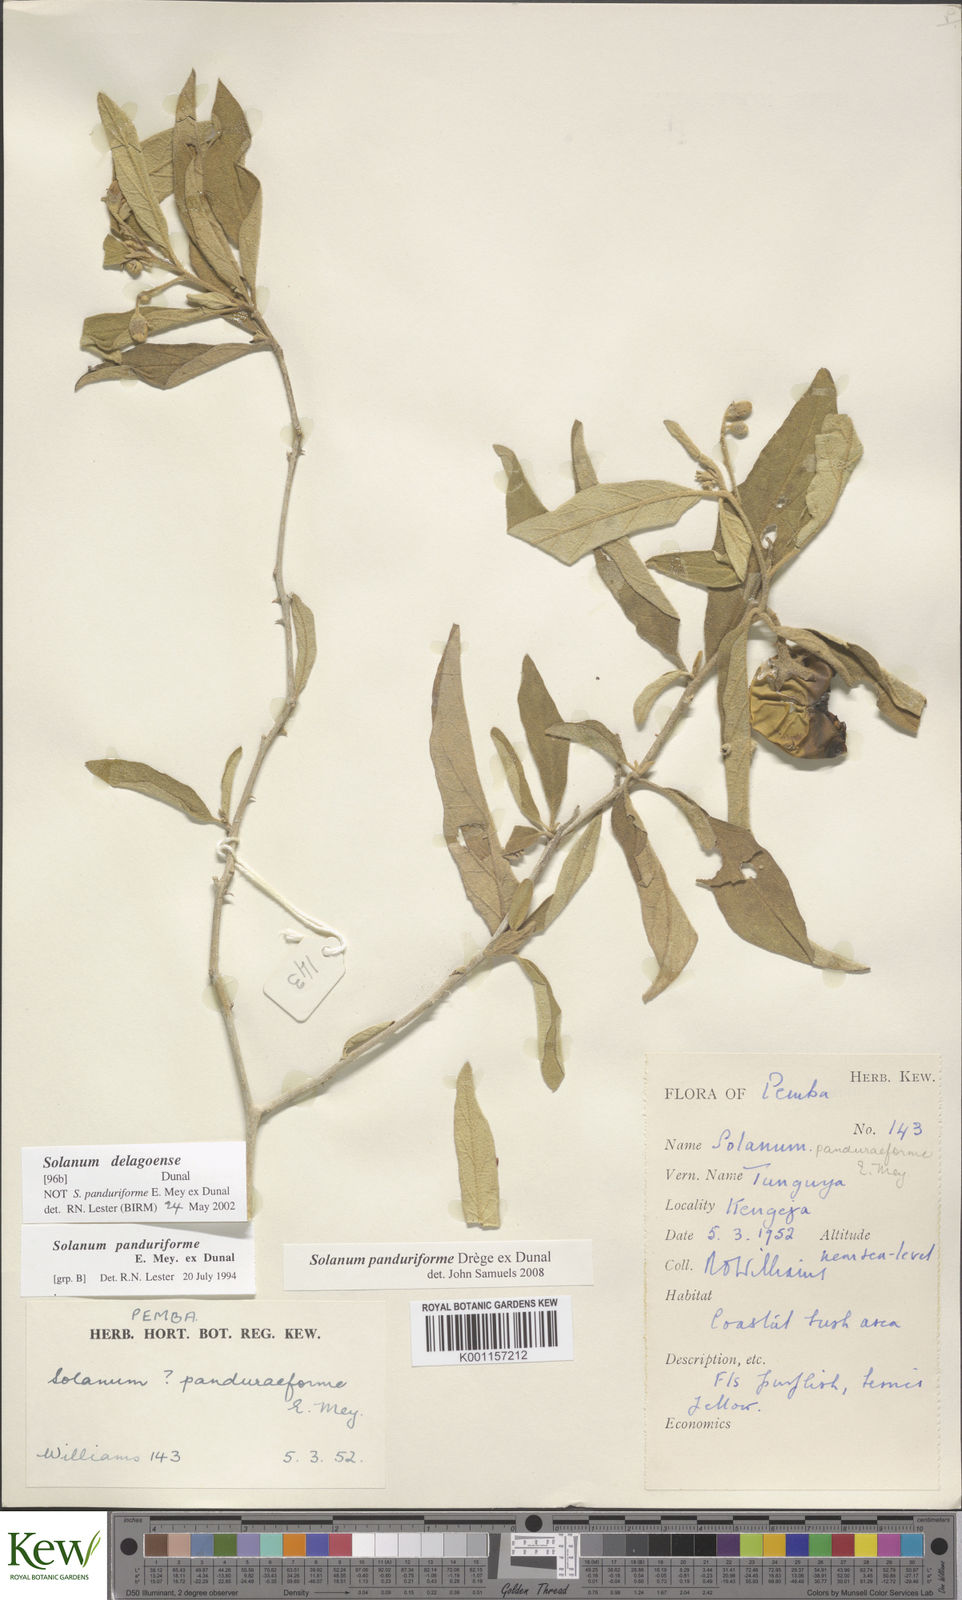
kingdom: Plantae
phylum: Tracheophyta
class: Magnoliopsida
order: Solanales
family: Solanaceae
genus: Solanum
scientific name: Solanum campylacanthum
